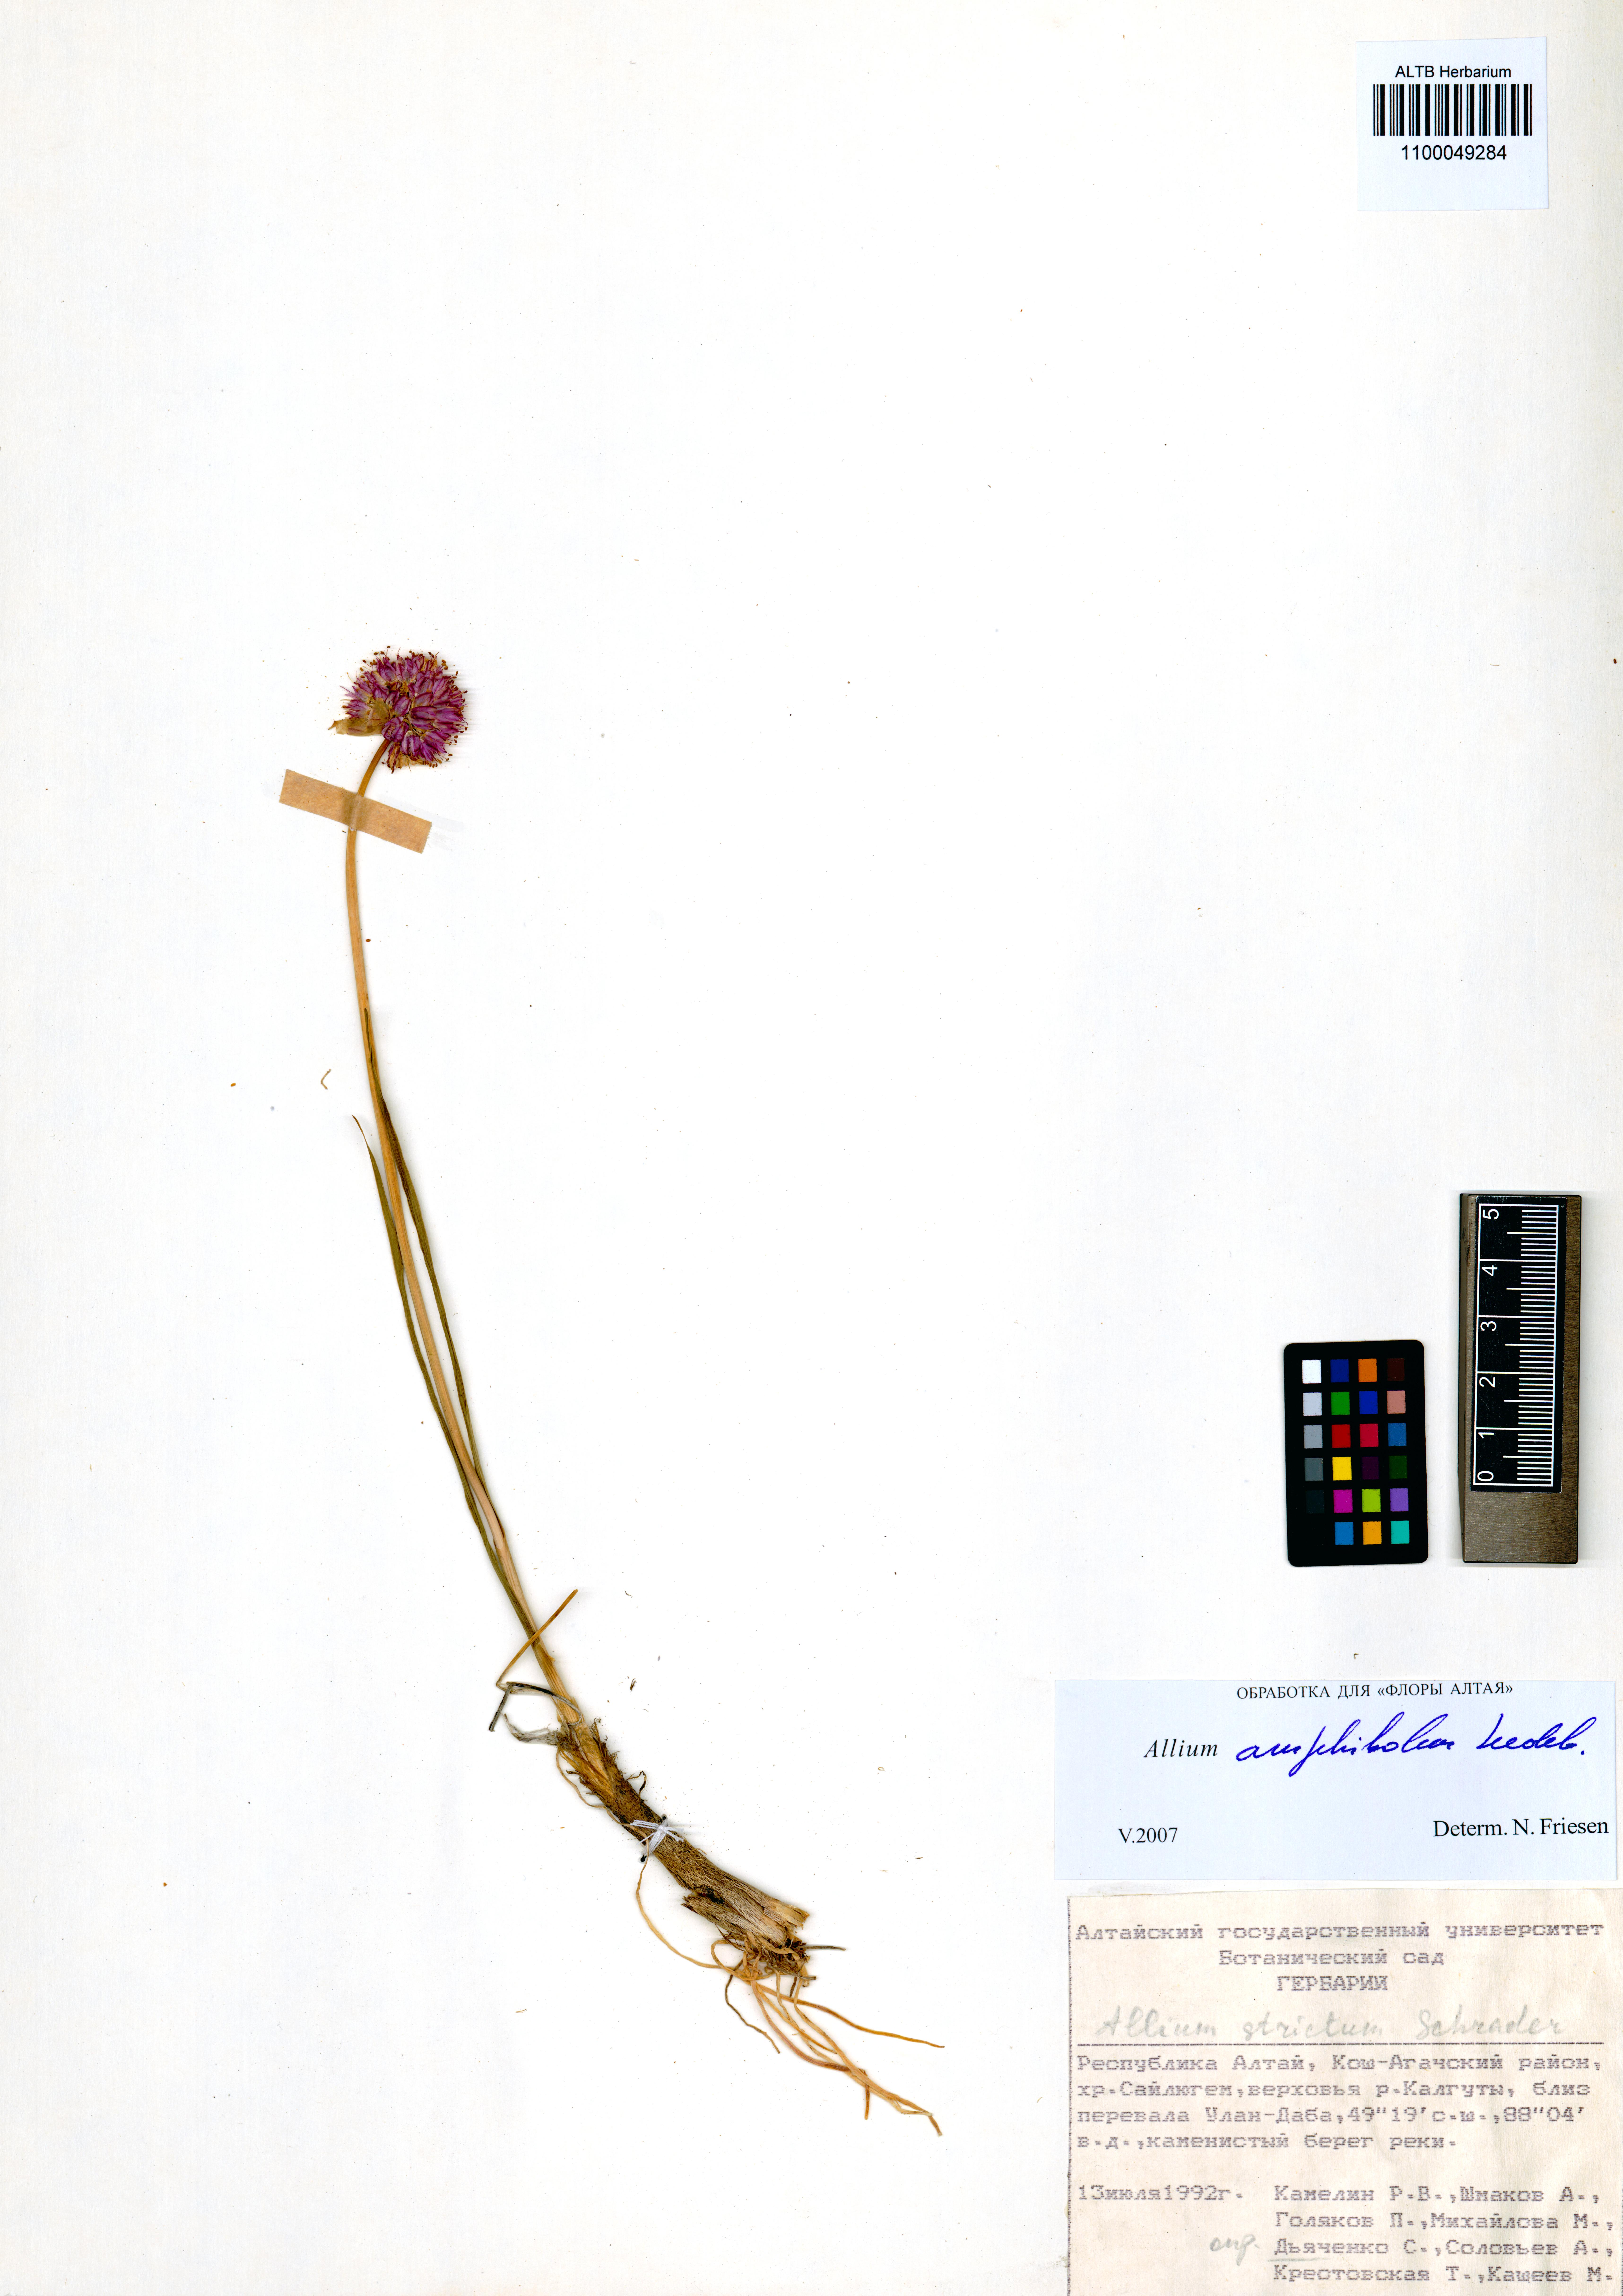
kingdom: Plantae
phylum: Tracheophyta
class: Liliopsida
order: Asparagales
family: Amaryllidaceae
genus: Allium
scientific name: Allium amphibolum
